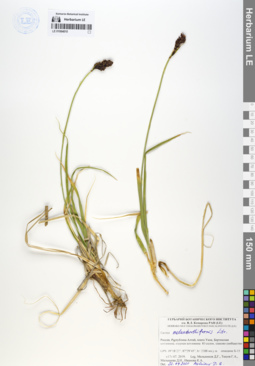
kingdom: Plantae
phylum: Tracheophyta
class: Liliopsida
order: Poales
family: Cyperaceae
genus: Carex
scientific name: Carex melananthiformis
